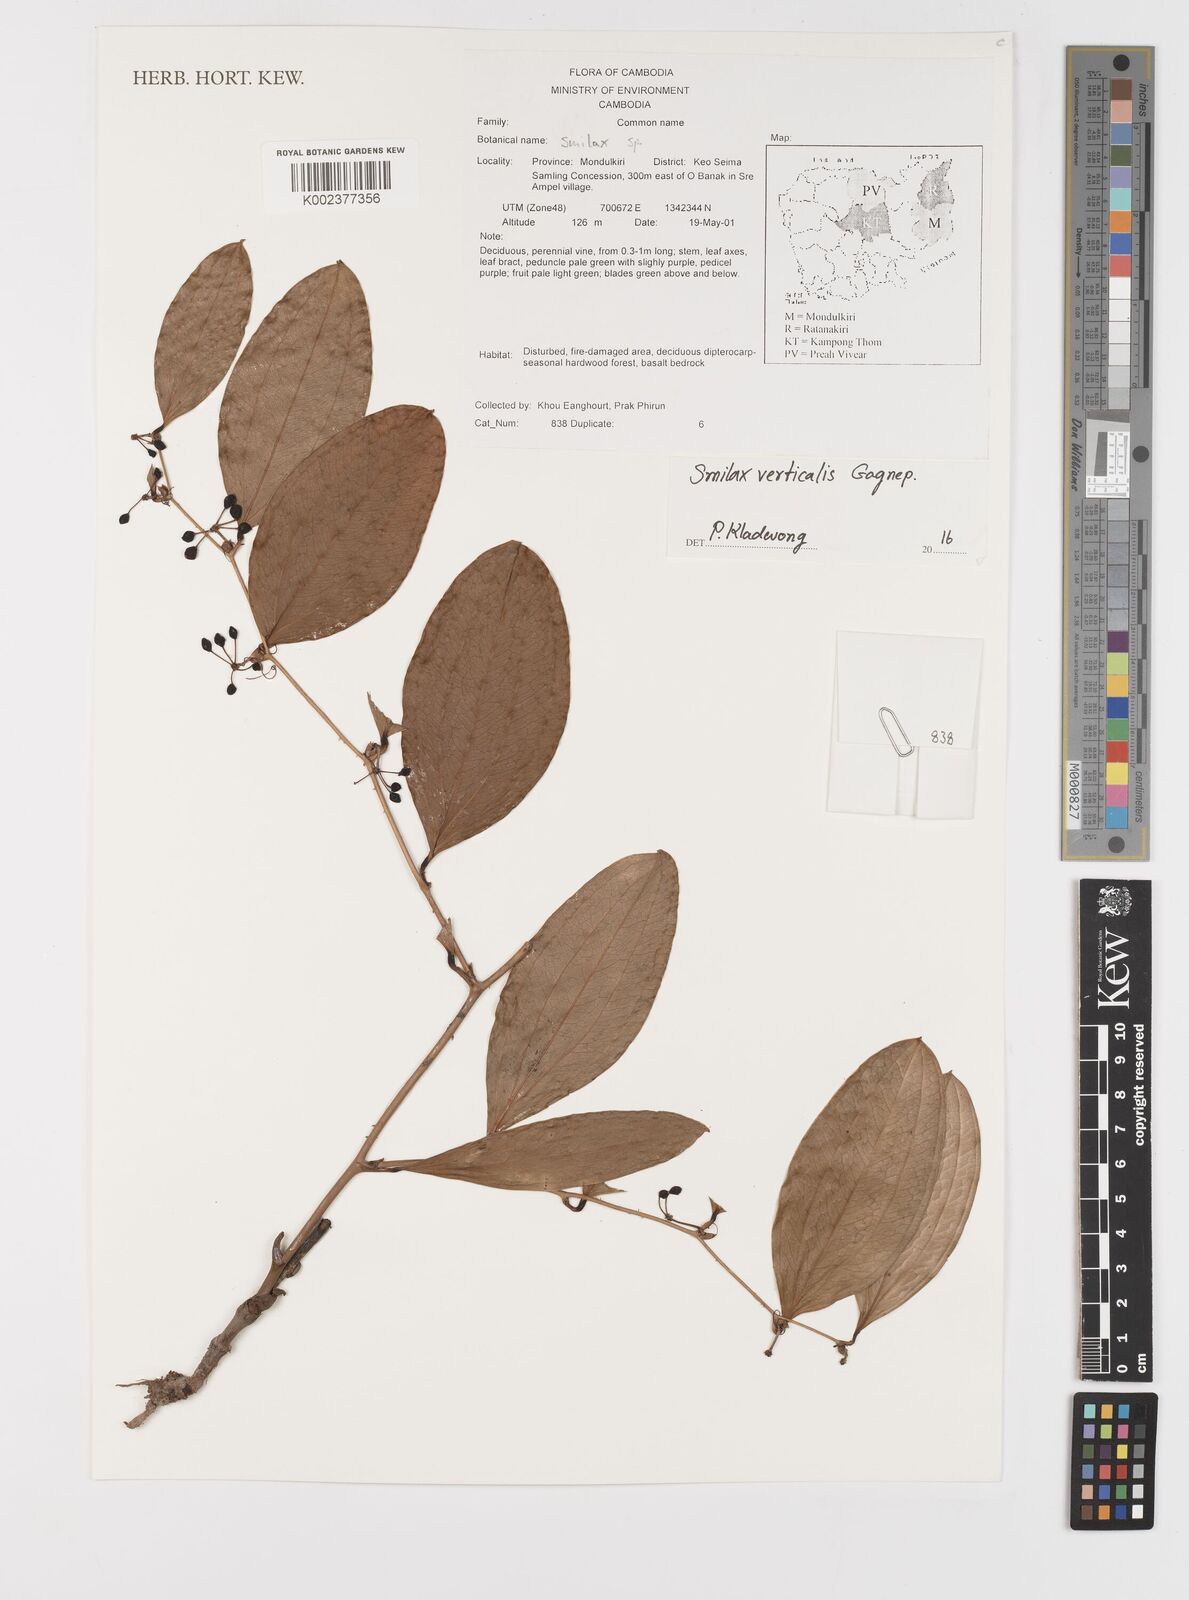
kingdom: Plantae
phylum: Tracheophyta
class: Liliopsida
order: Liliales
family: Smilacaceae
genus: Smilax
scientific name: Smilax verticalis
